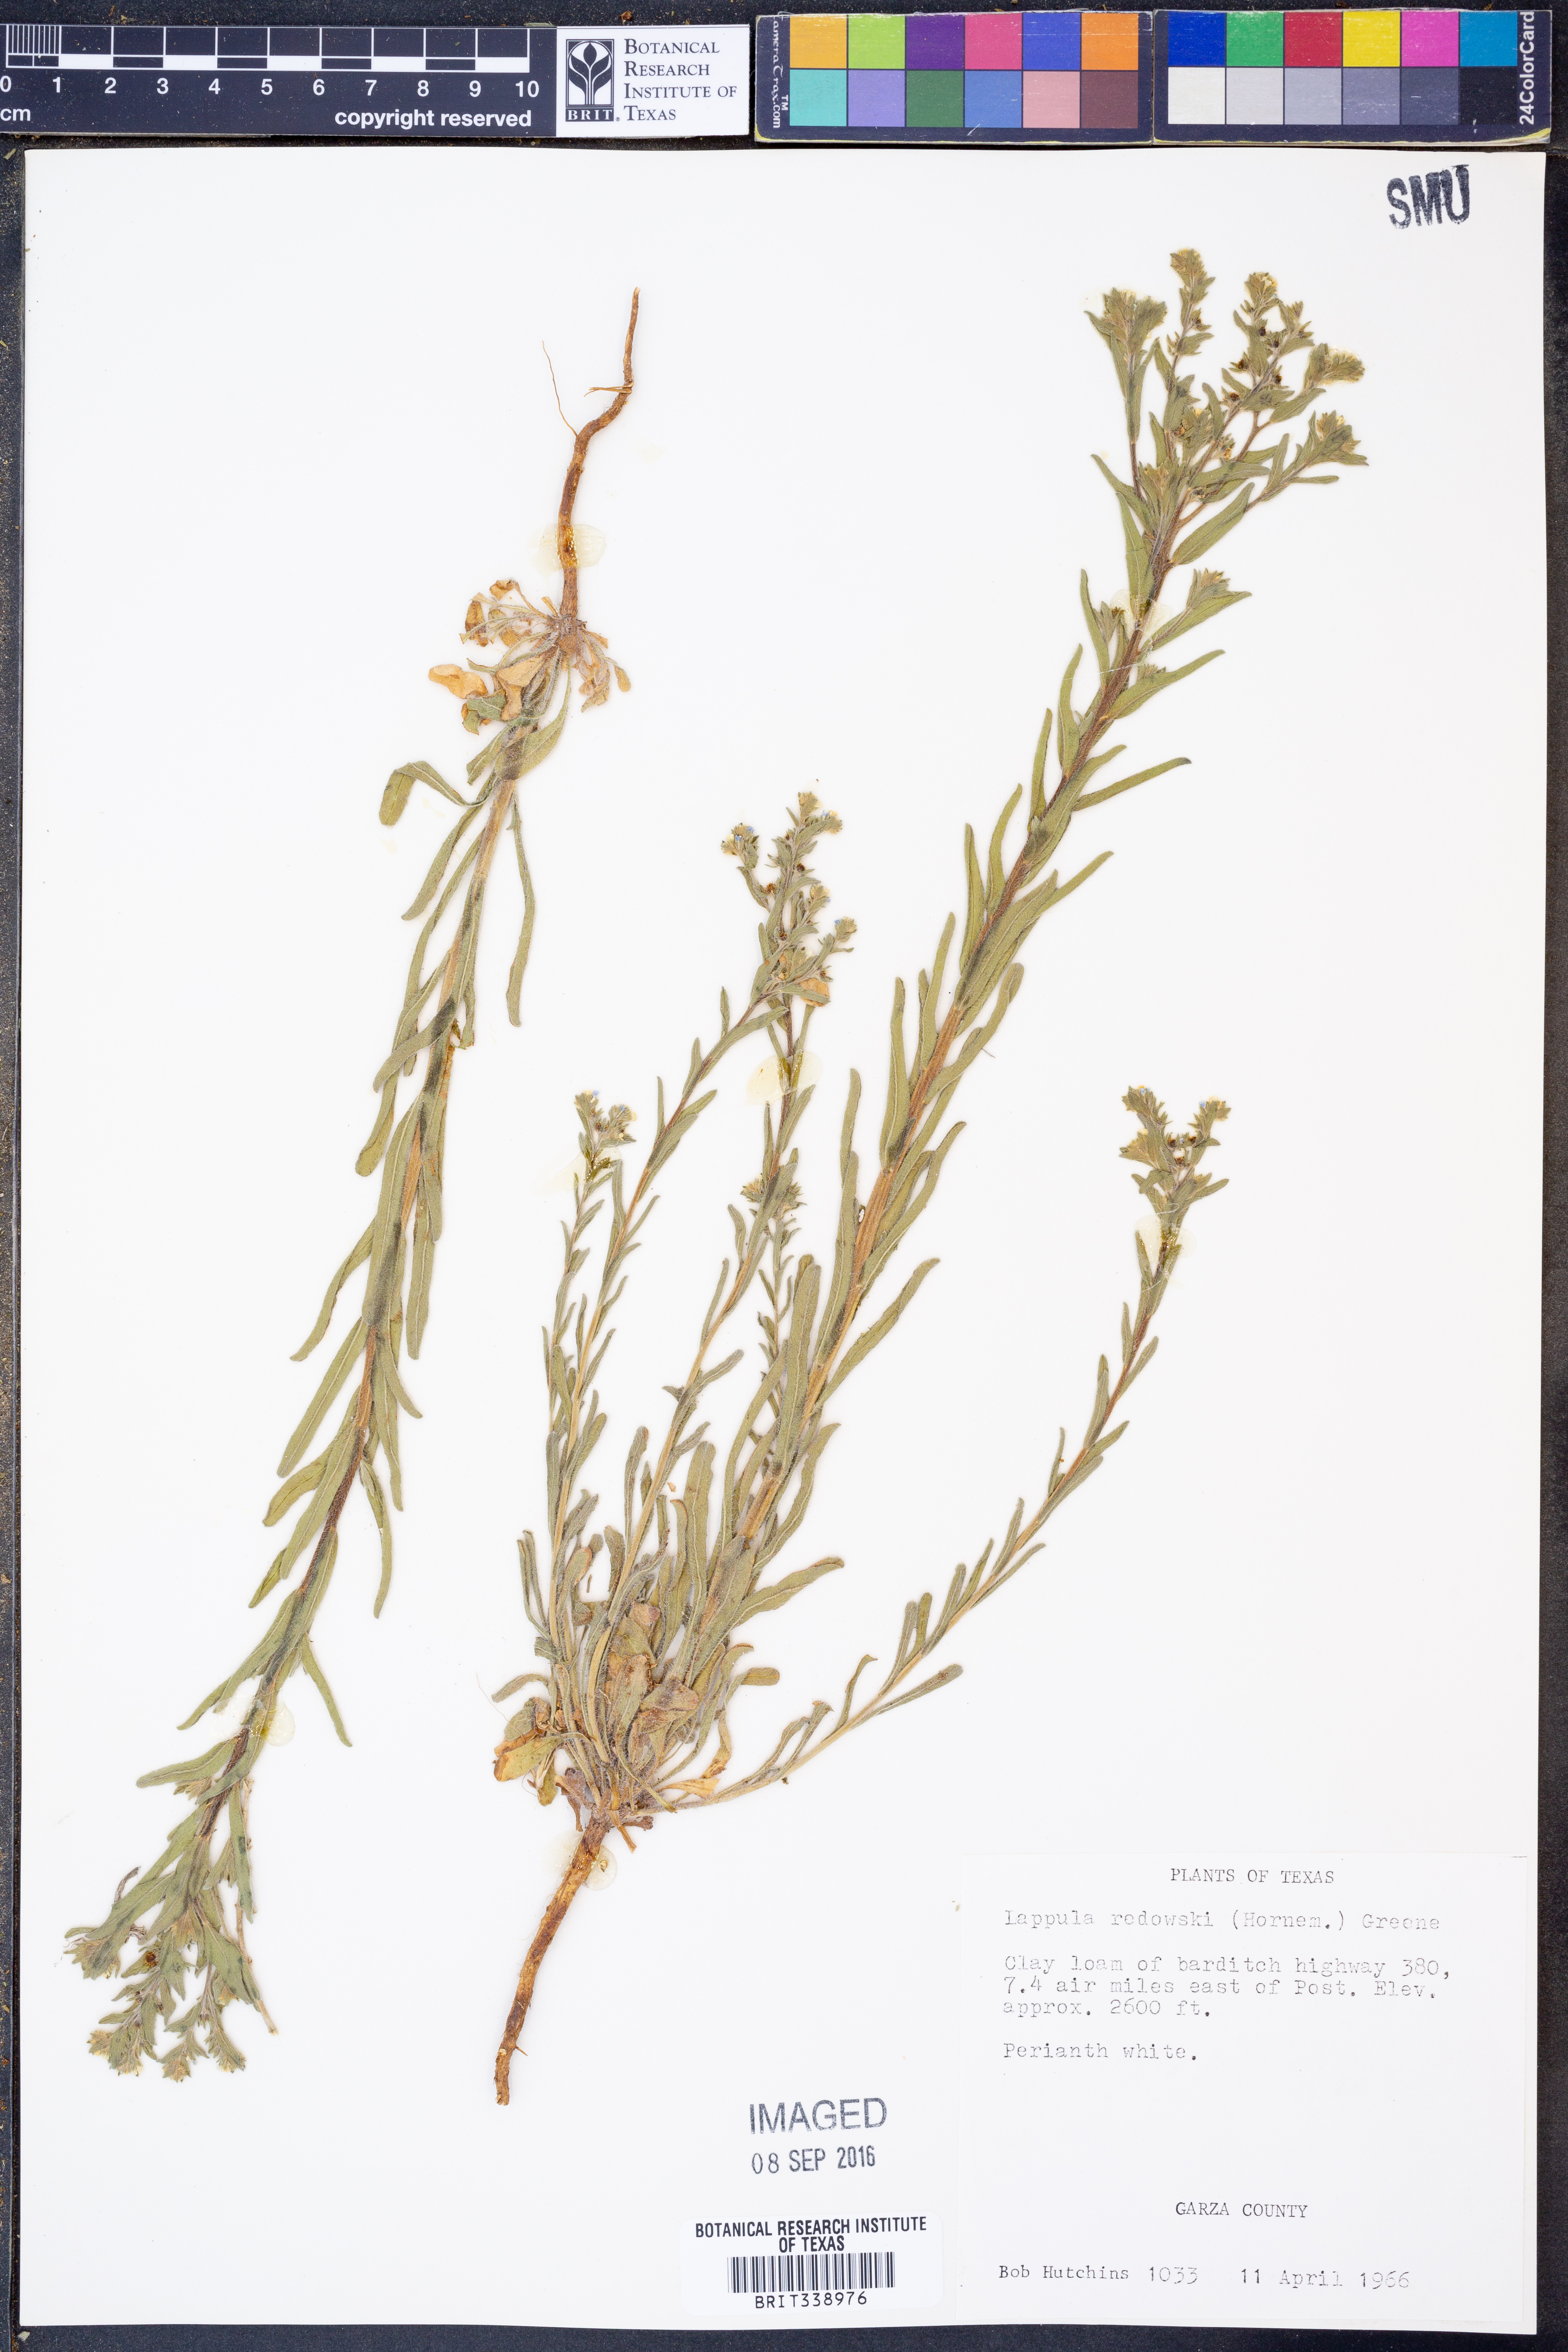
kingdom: Plantae
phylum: Tracheophyta
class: Magnoliopsida
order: Boraginales
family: Boraginaceae
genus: Lappula
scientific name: Lappula redowskii
